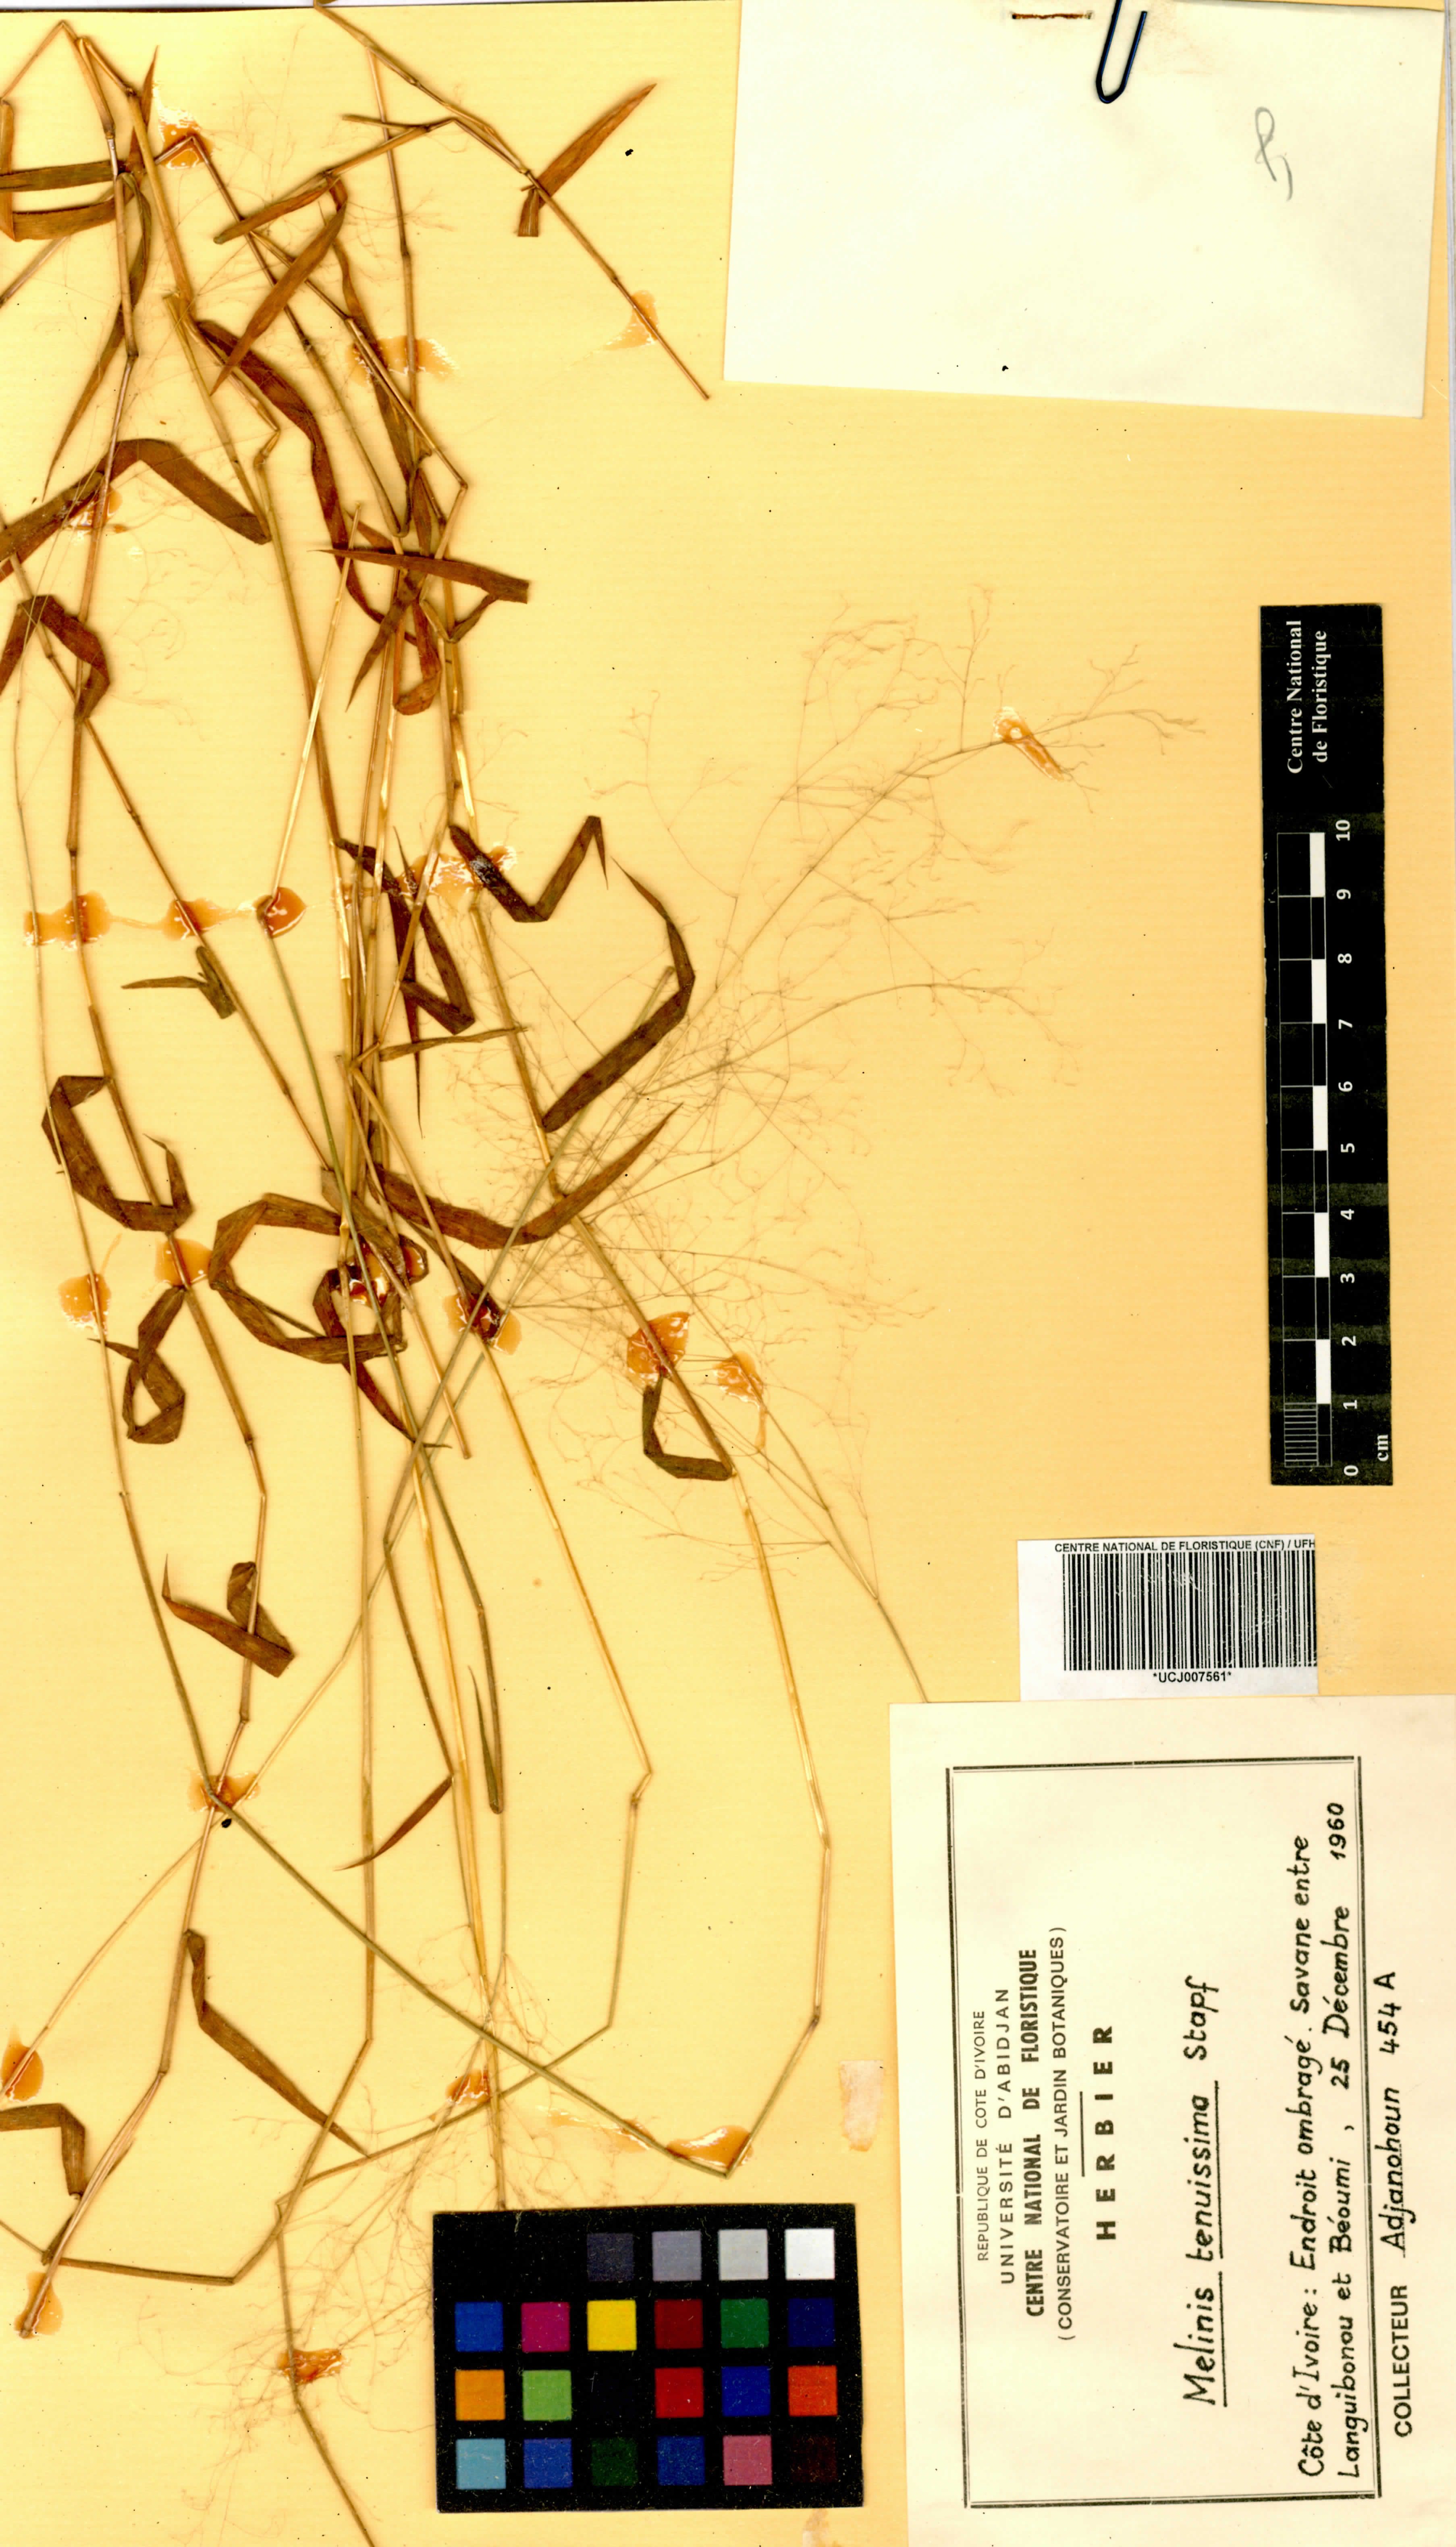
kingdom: Plantae
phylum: Tracheophyta
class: Liliopsida
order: Poales
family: Poaceae
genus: Melinis
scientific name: Melinis tenuissima
